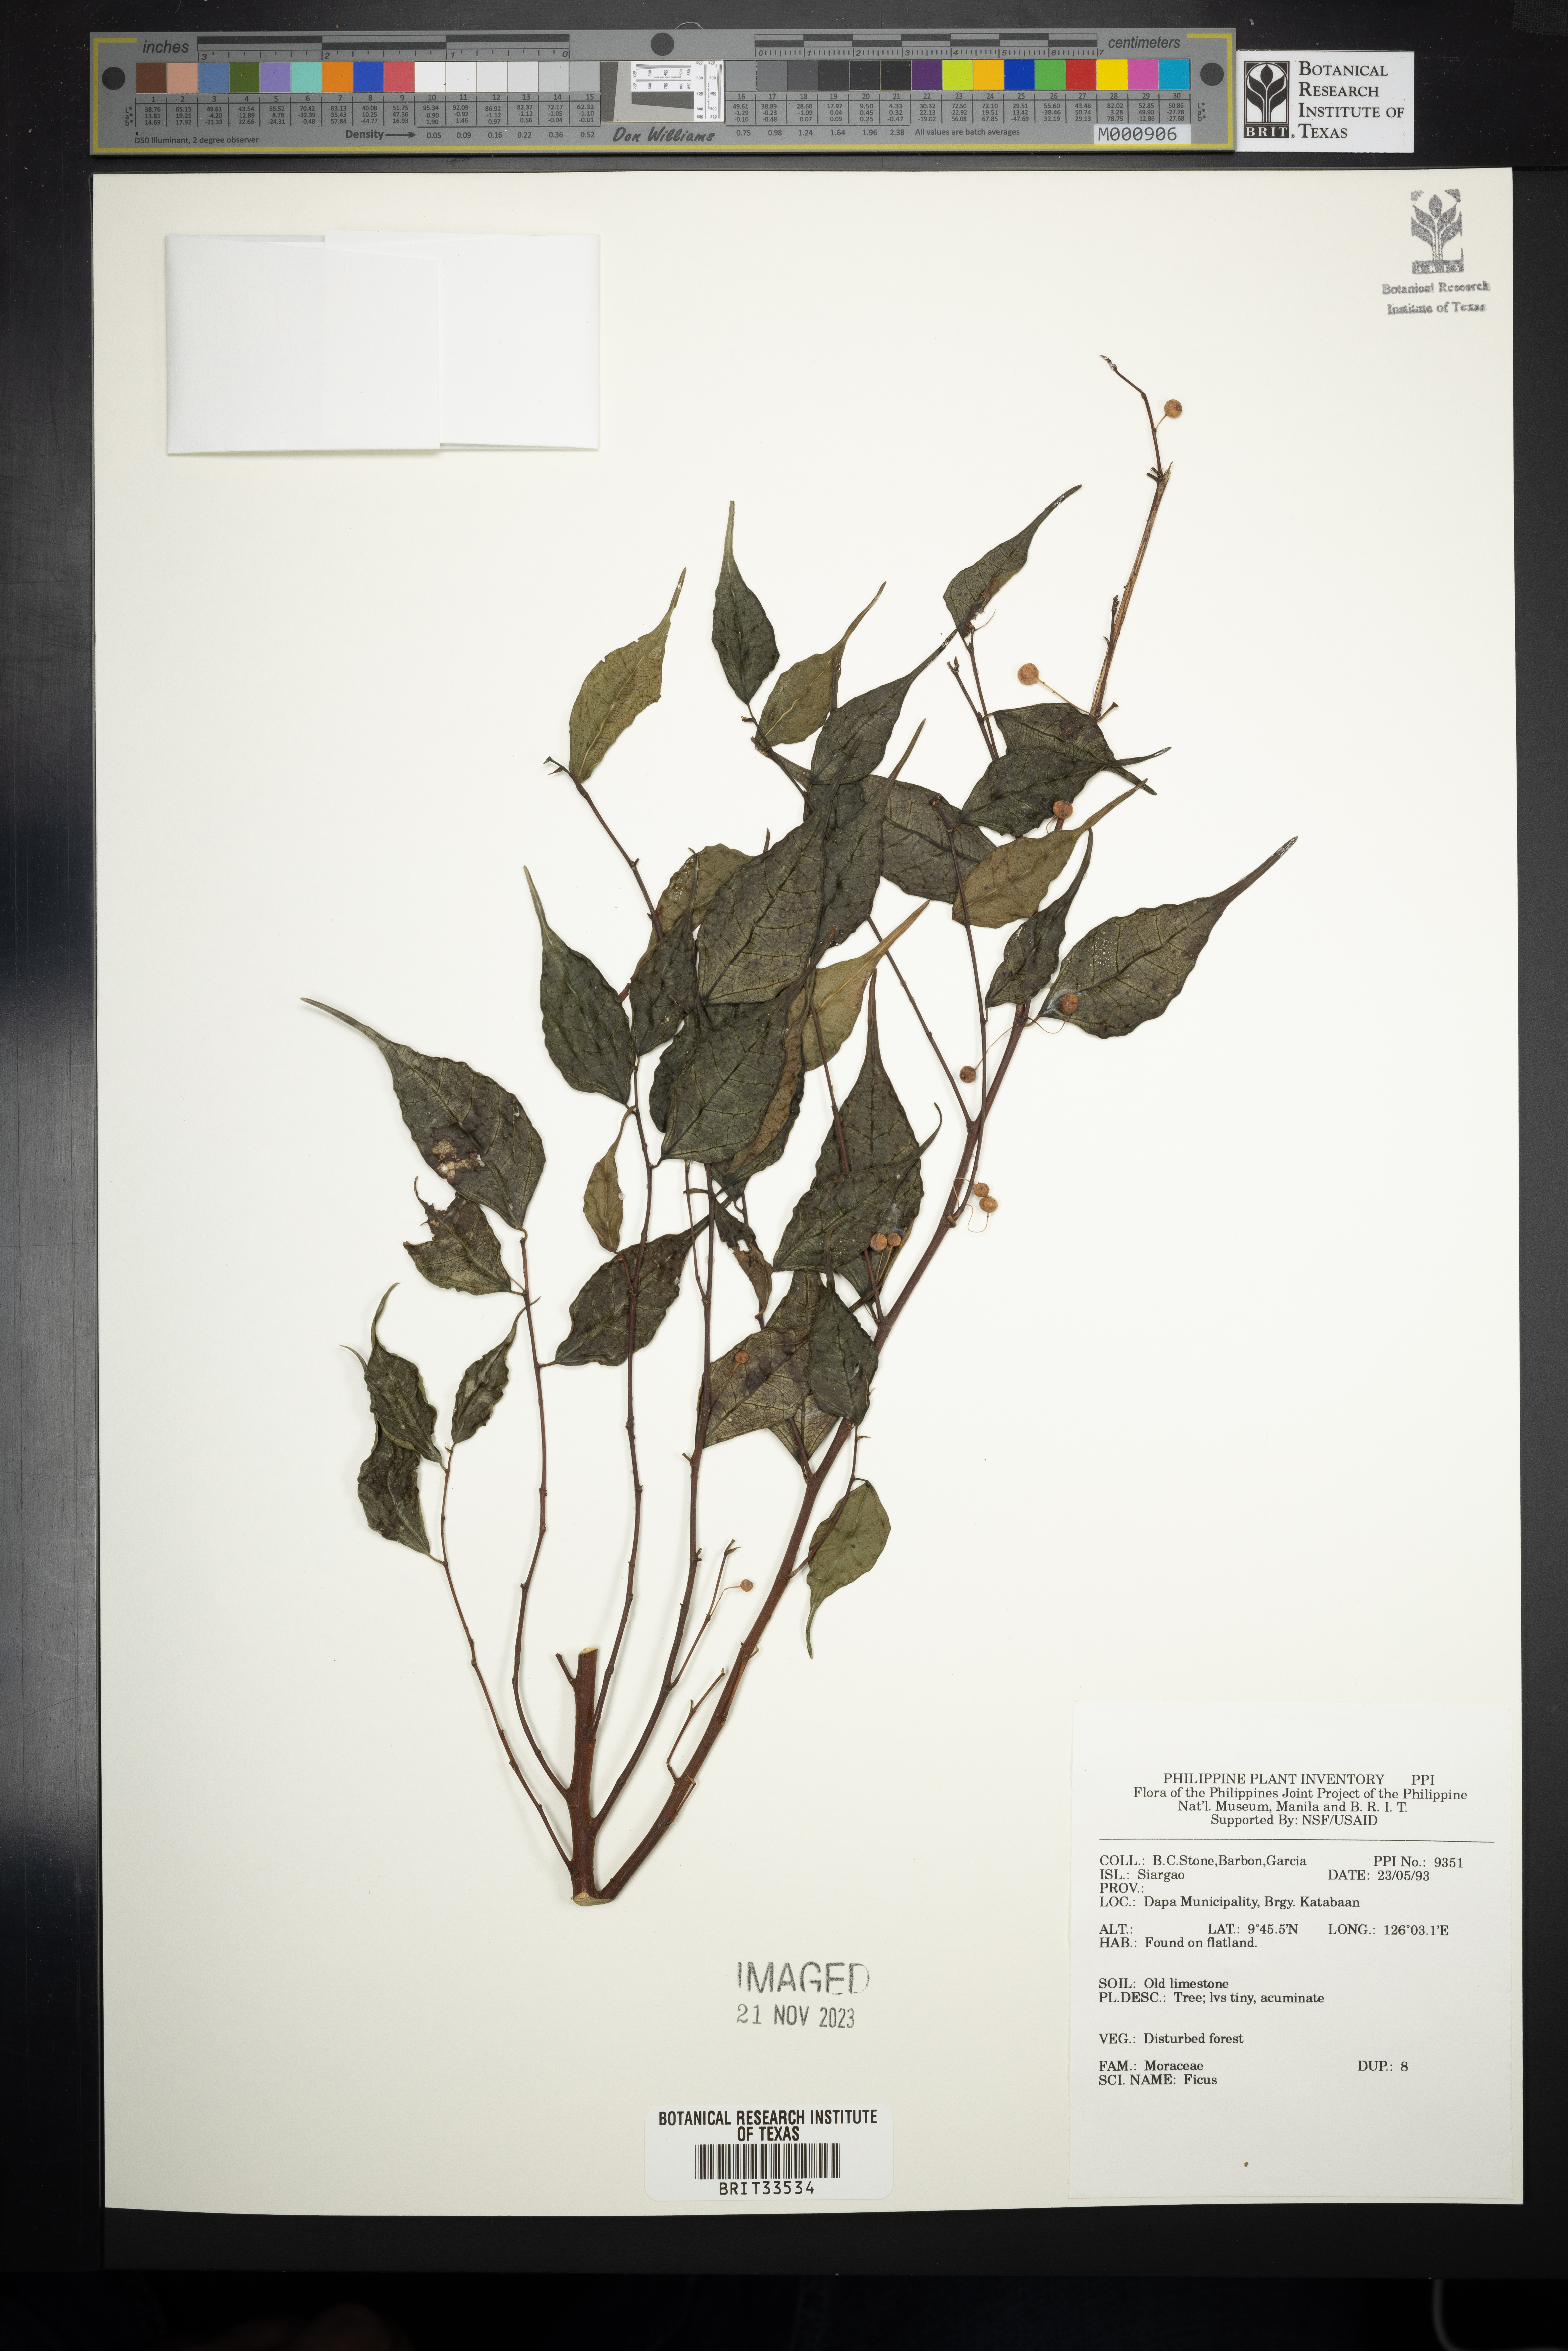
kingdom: Plantae
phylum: Tracheophyta
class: Magnoliopsida
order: Rosales
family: Moraceae
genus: Ficus
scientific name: Ficus
